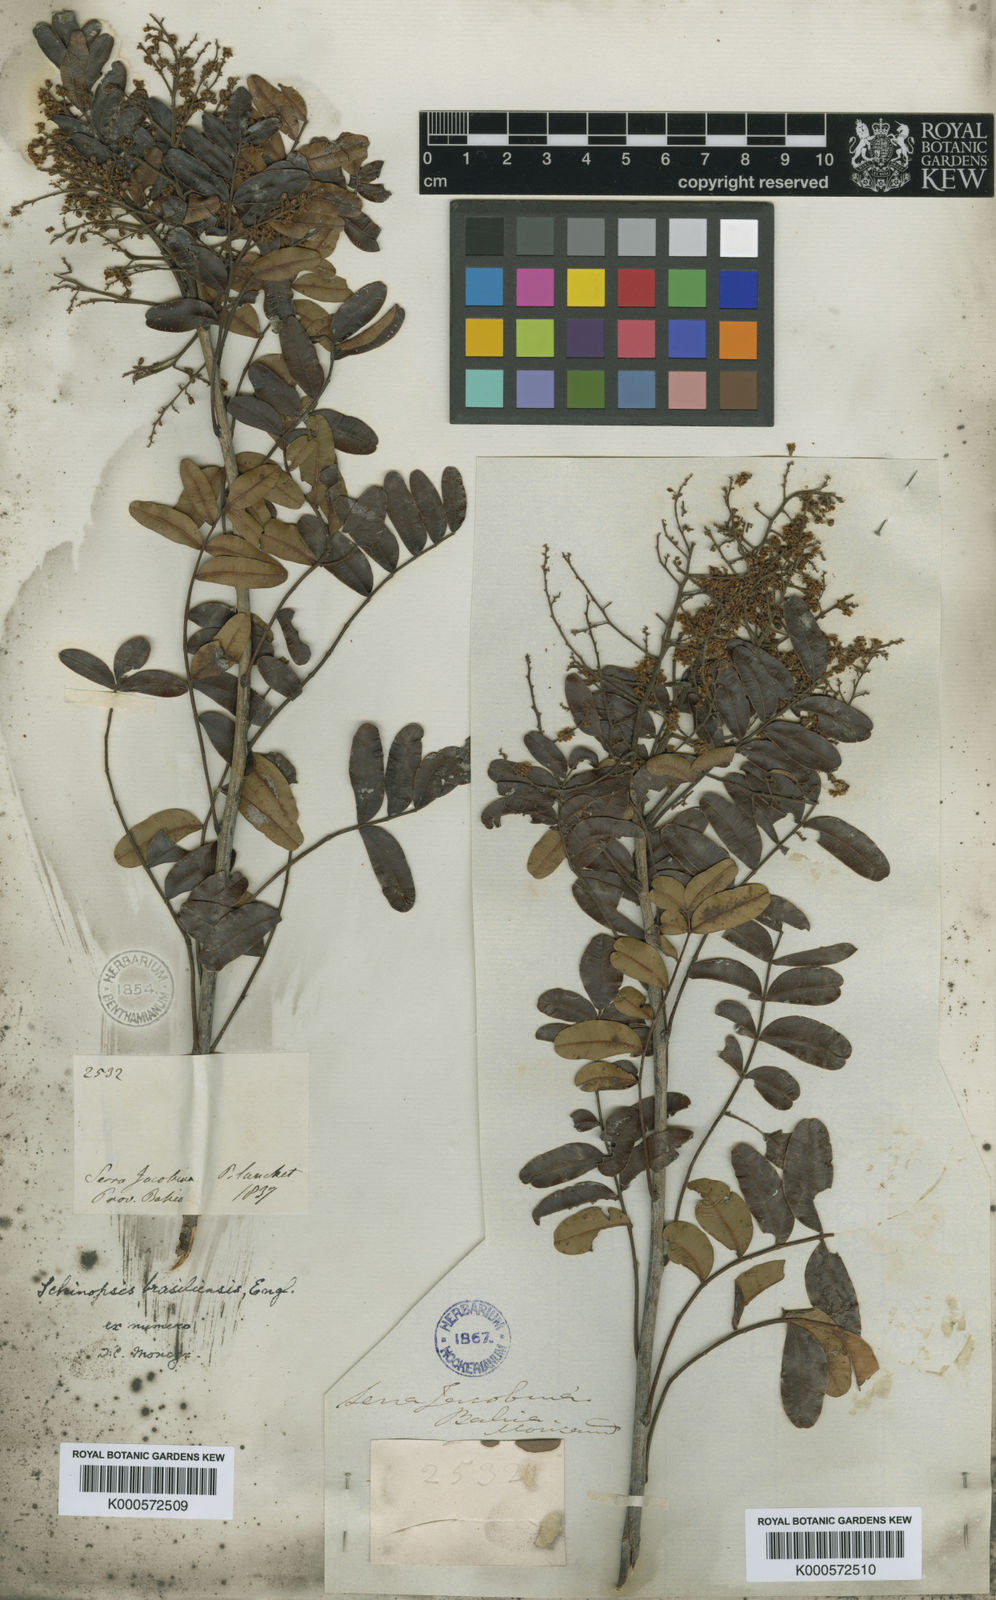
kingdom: Plantae
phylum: Tracheophyta
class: Magnoliopsida
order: Sapindales
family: Anacardiaceae
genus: Schinopsis
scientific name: Schinopsis brasiliensis
